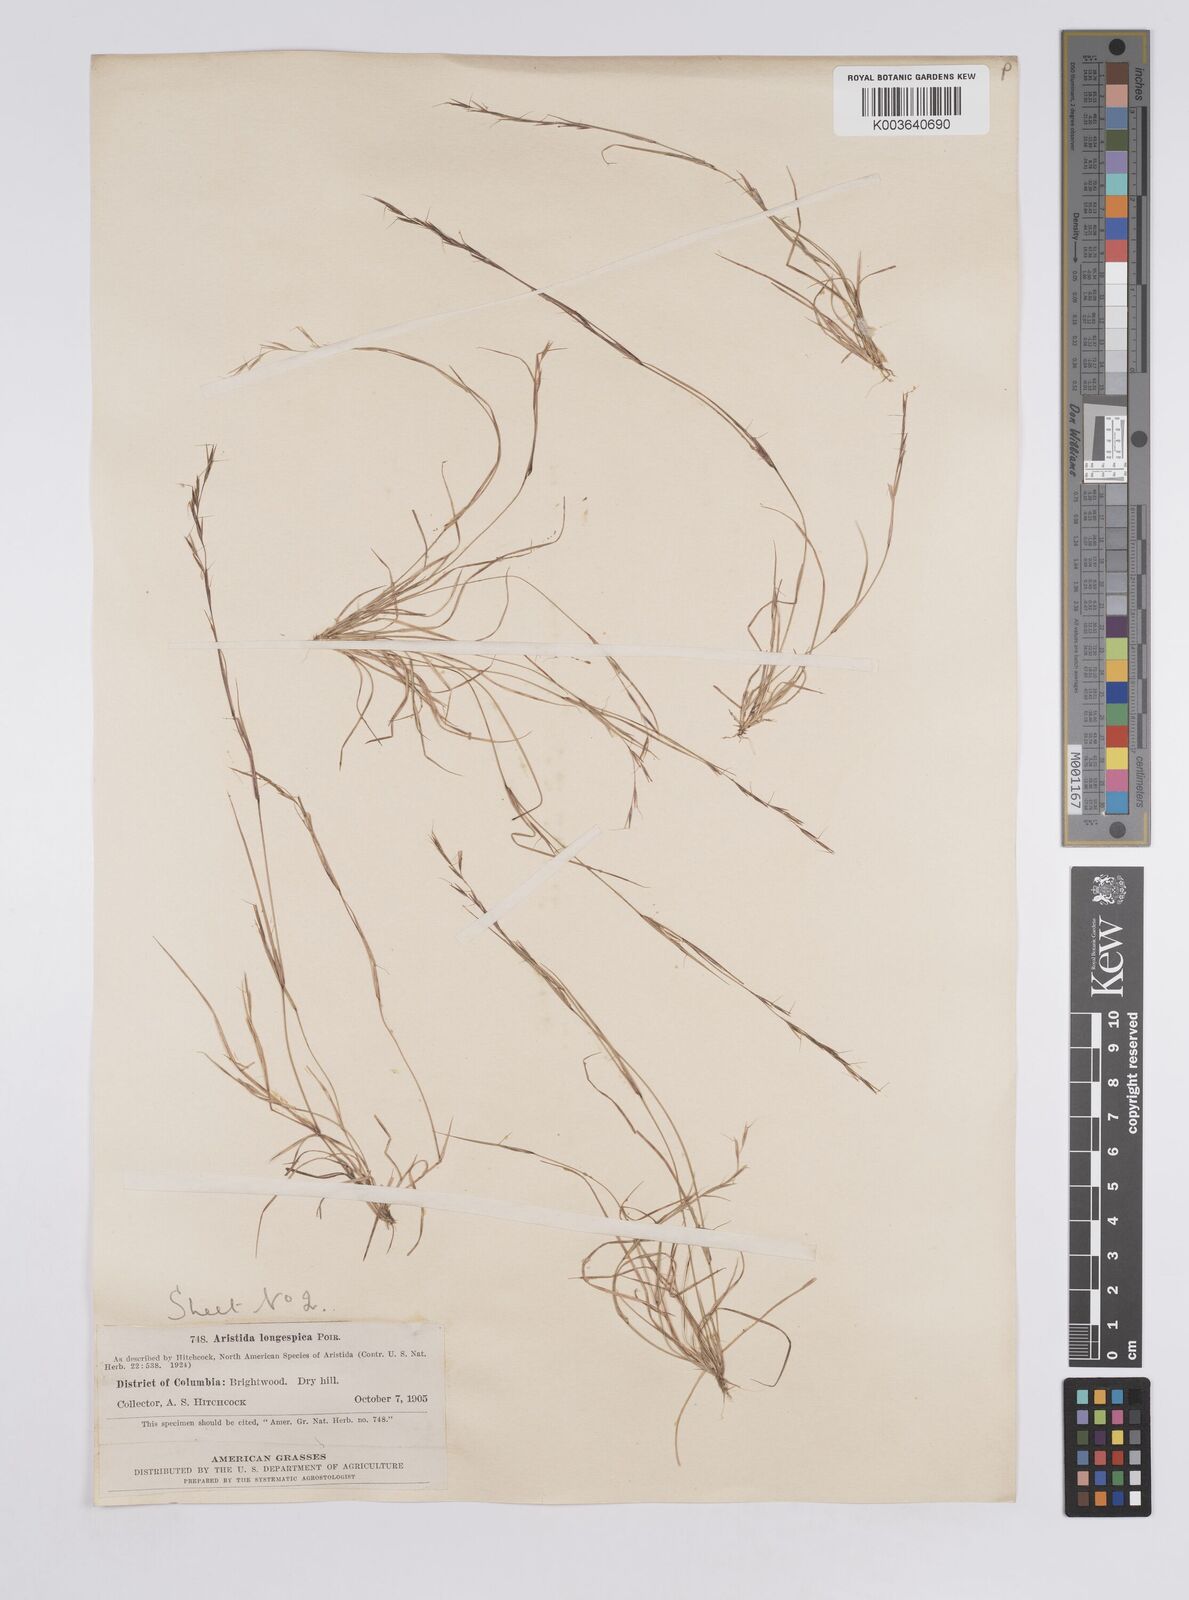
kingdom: Plantae
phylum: Tracheophyta
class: Liliopsida
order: Poales
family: Poaceae
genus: Aristida
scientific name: Aristida longespica
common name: Long-spiked triple-awned grass
